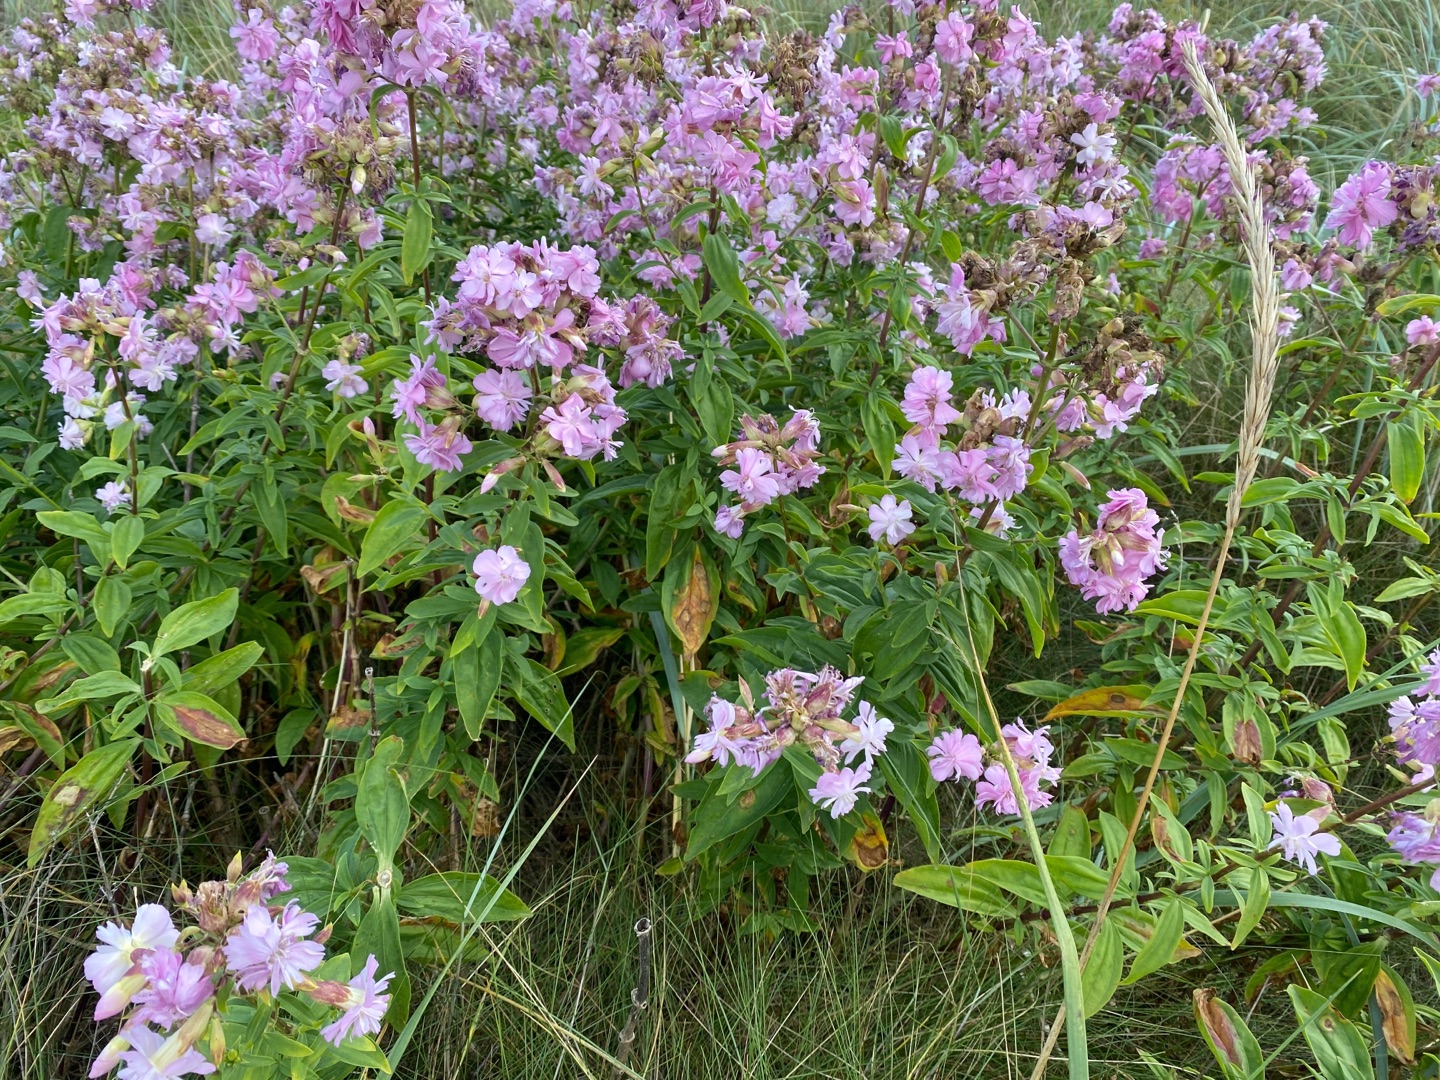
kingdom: Plantae
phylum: Tracheophyta
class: Magnoliopsida
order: Caryophyllales
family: Caryophyllaceae
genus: Saponaria
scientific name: Saponaria officinalis
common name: Sæbeurt
